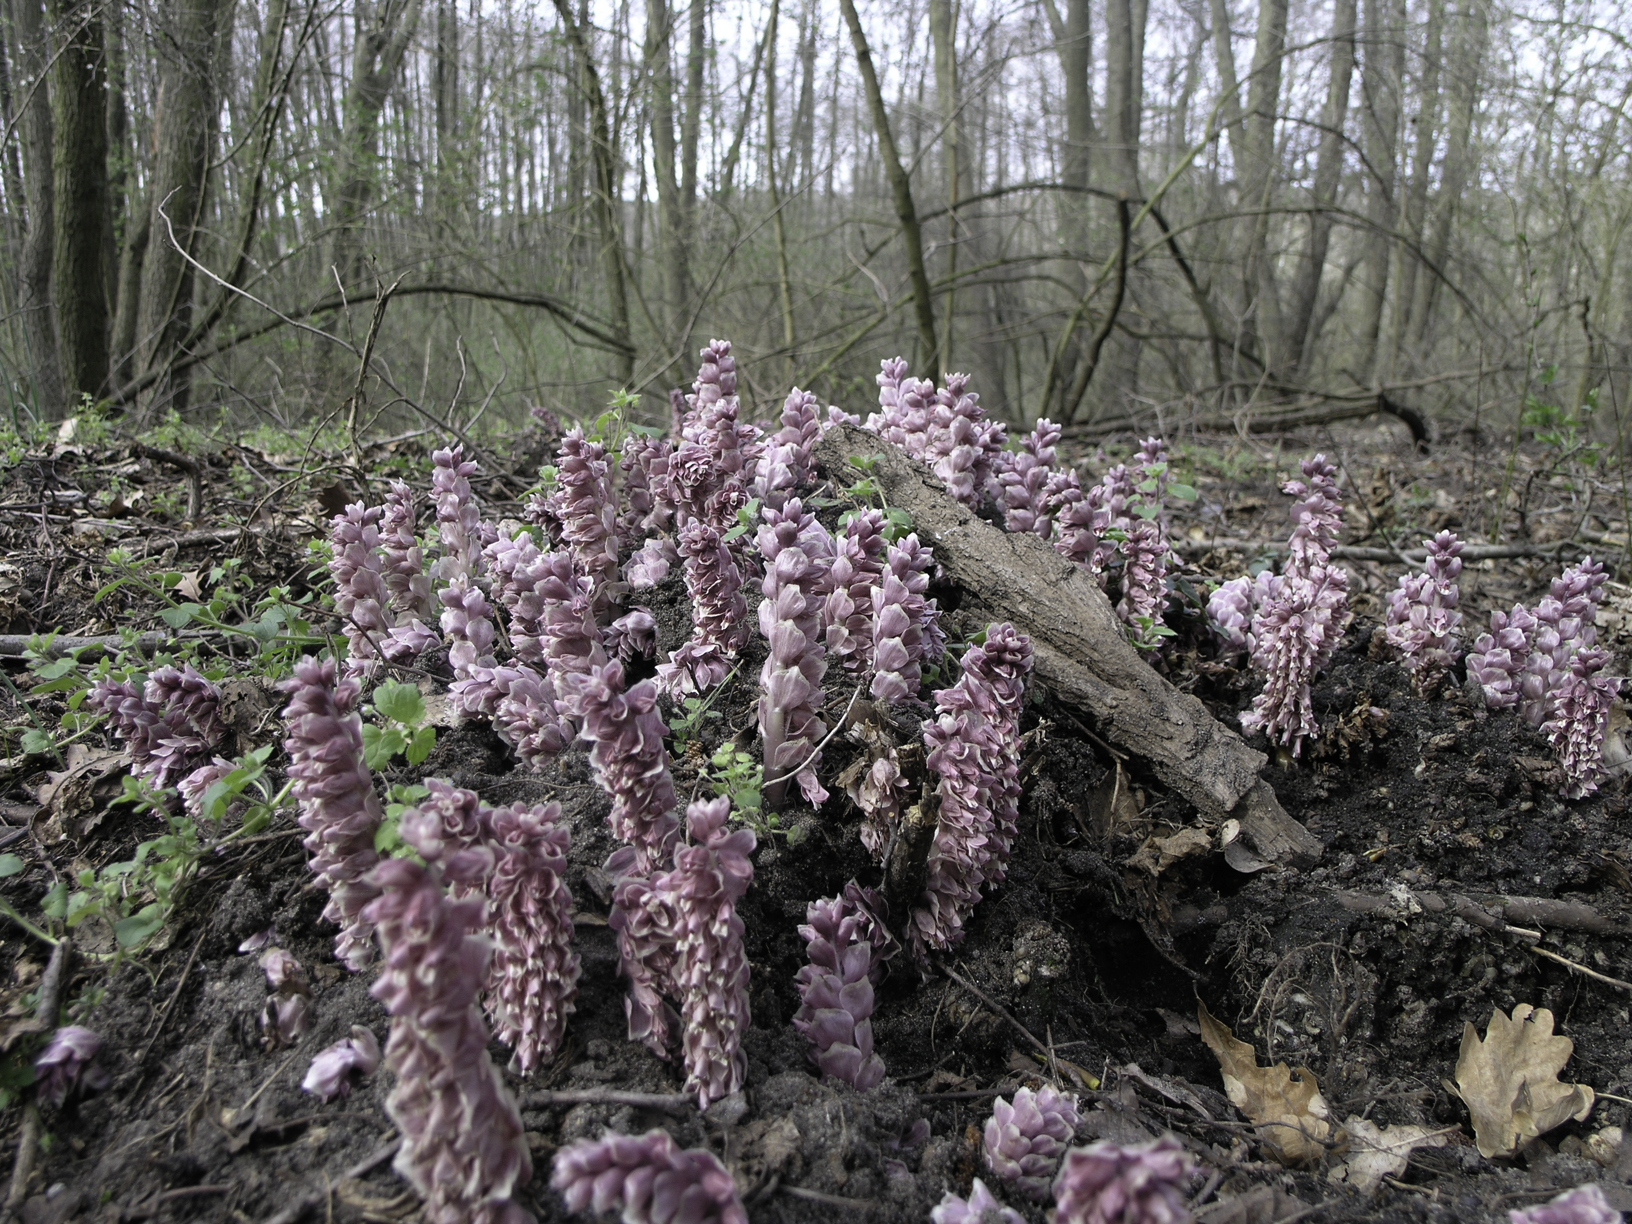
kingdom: Plantae
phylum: Tracheophyta
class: Magnoliopsida
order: Lamiales
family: Orobanchaceae
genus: Lathraea
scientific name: Lathraea squameria
